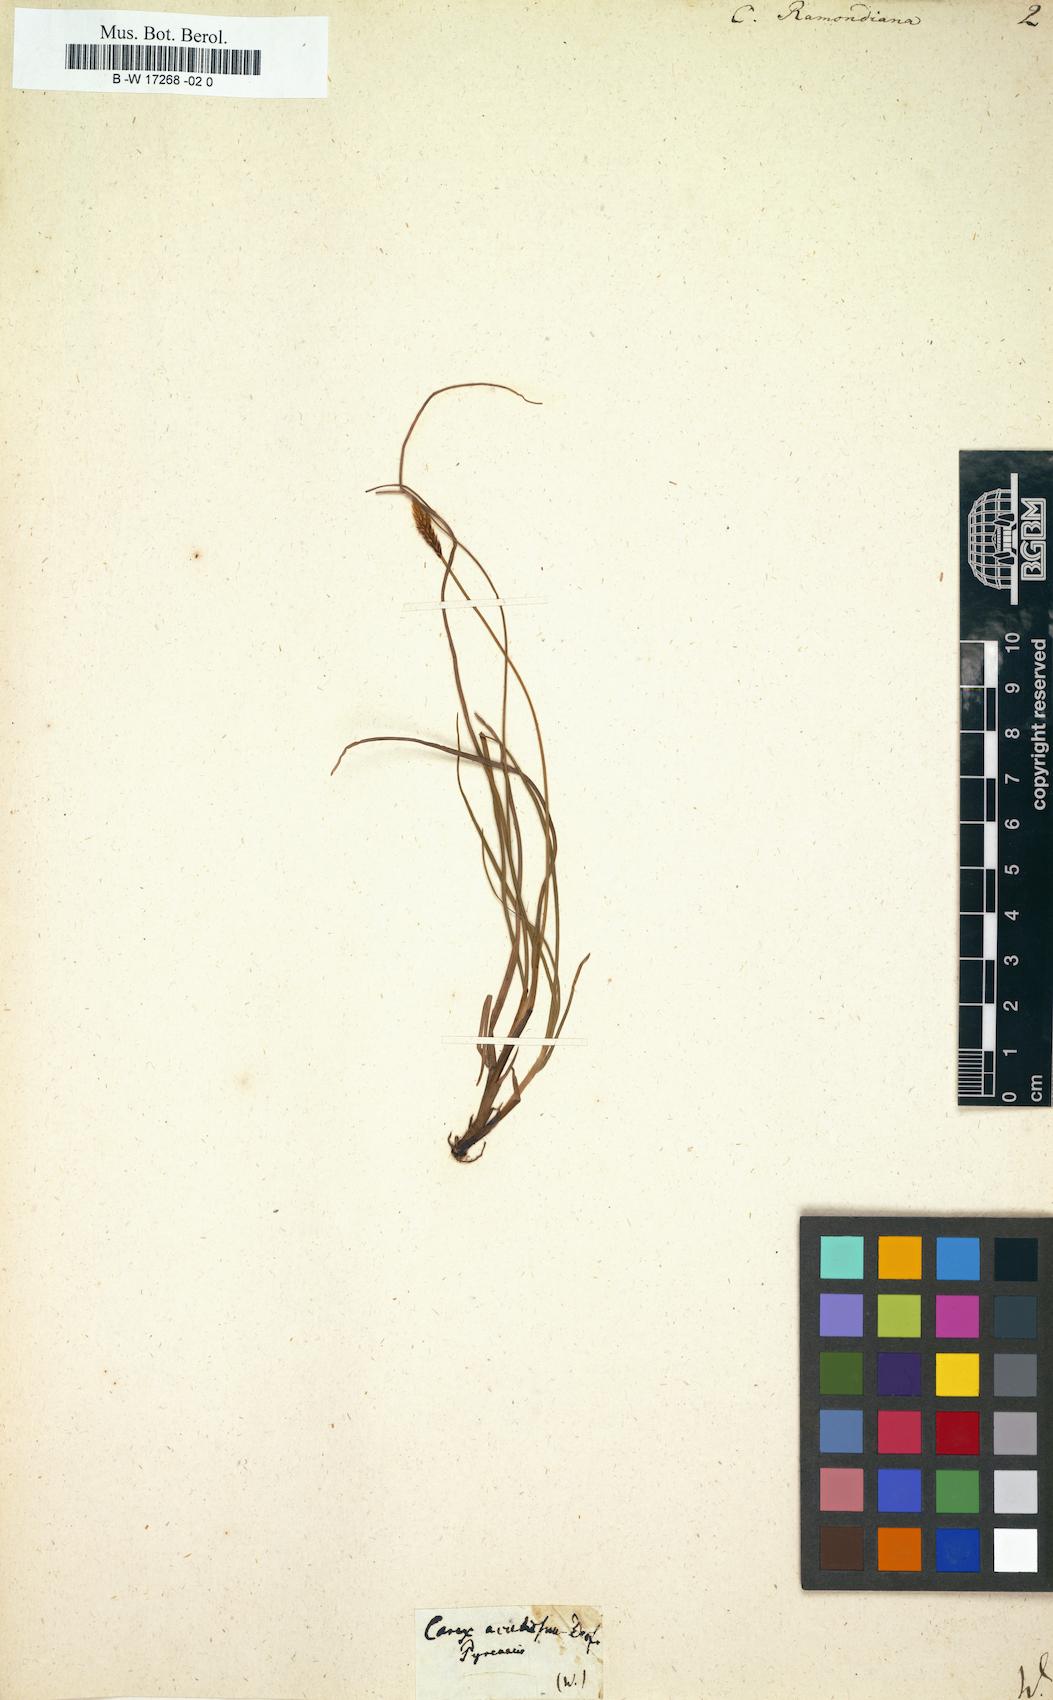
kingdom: Plantae
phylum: Tracheophyta
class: Liliopsida
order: Poales
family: Cyperaceae
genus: Carex
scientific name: Carex pyrenaica
